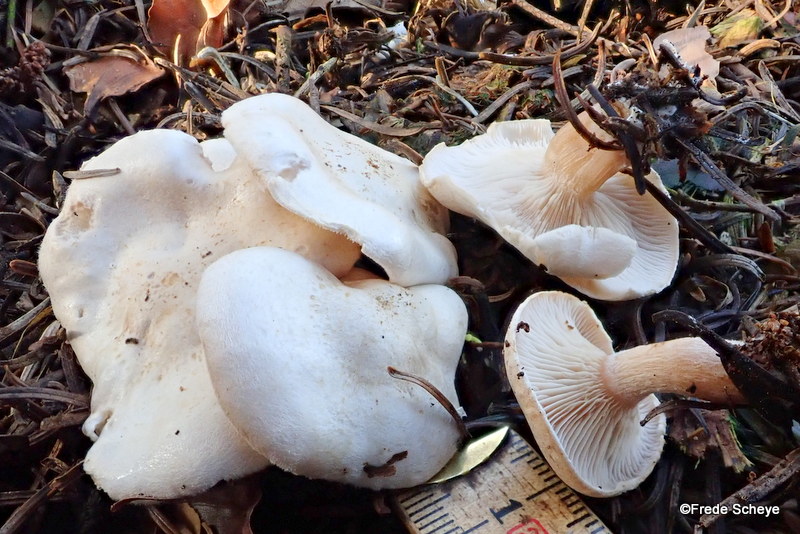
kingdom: Fungi
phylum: Basidiomycota
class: Agaricomycetes
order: Agaricales
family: Entolomataceae
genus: Clitopilus
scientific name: Clitopilus prunulus
